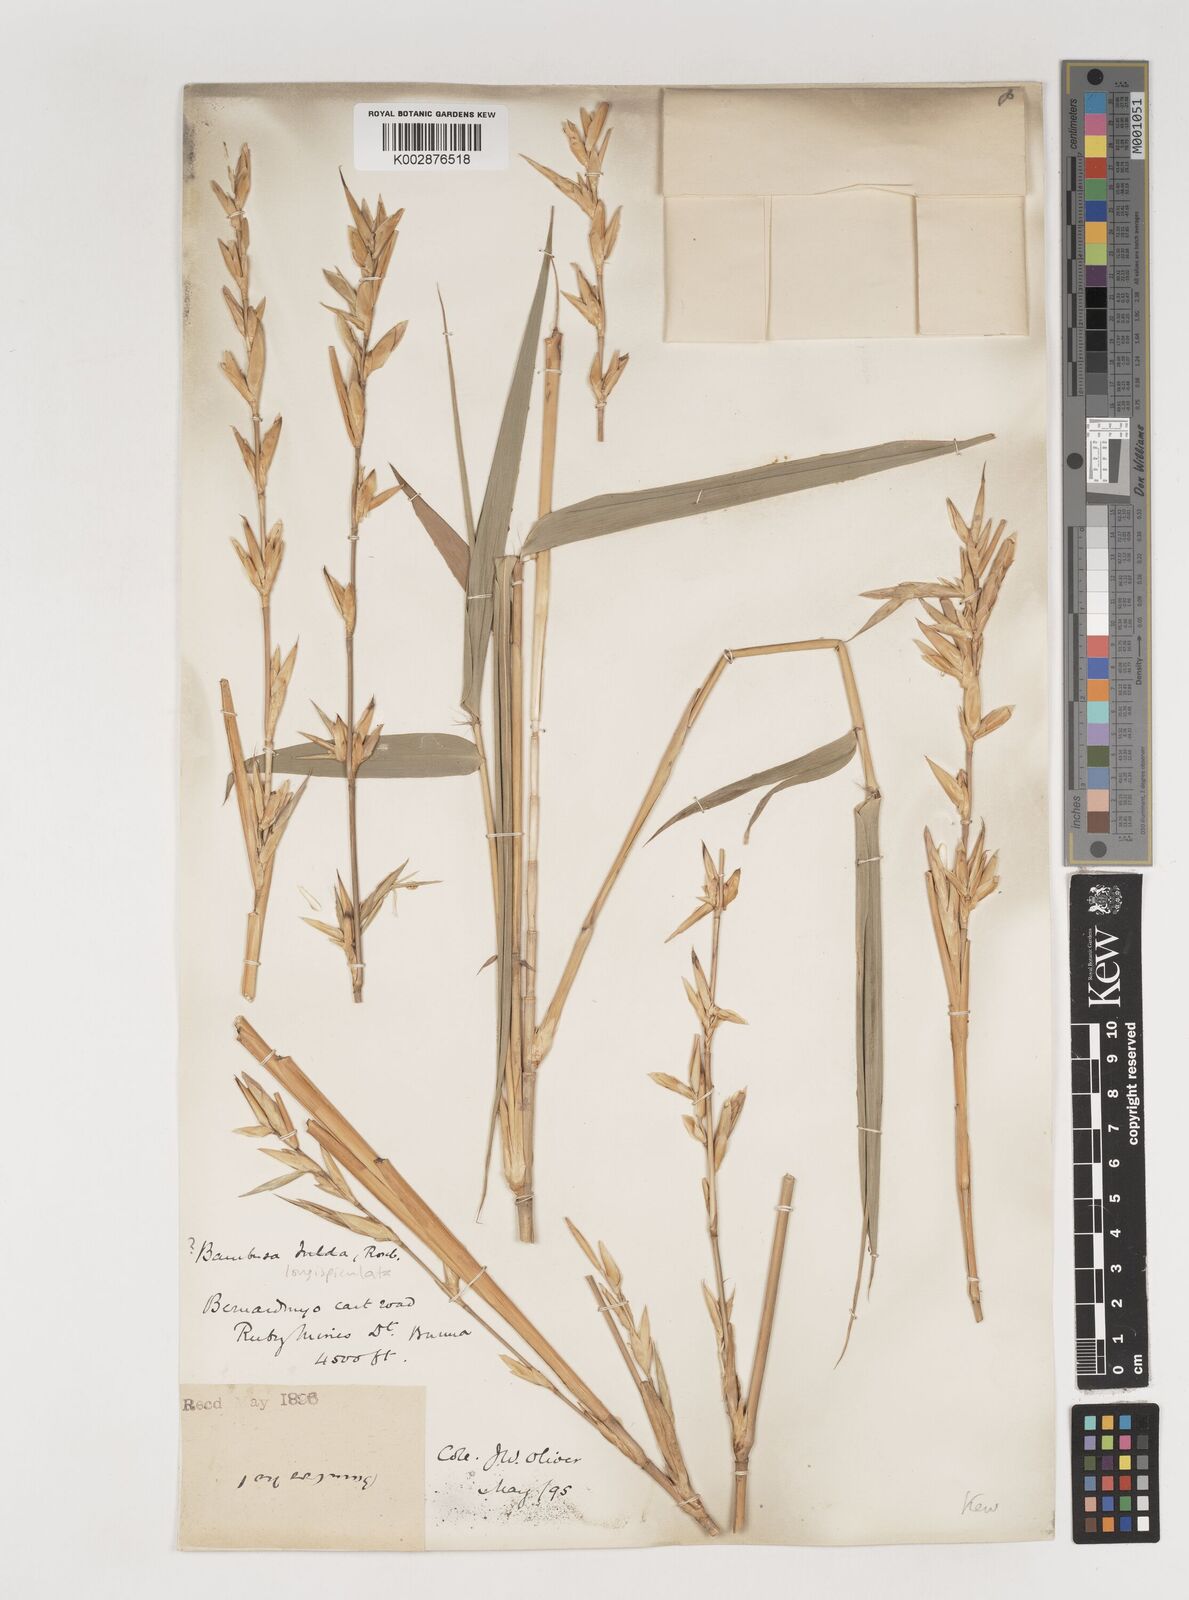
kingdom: Plantae
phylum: Tracheophyta
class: Liliopsida
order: Poales
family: Poaceae
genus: Bambusa
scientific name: Bambusa longispiculata
